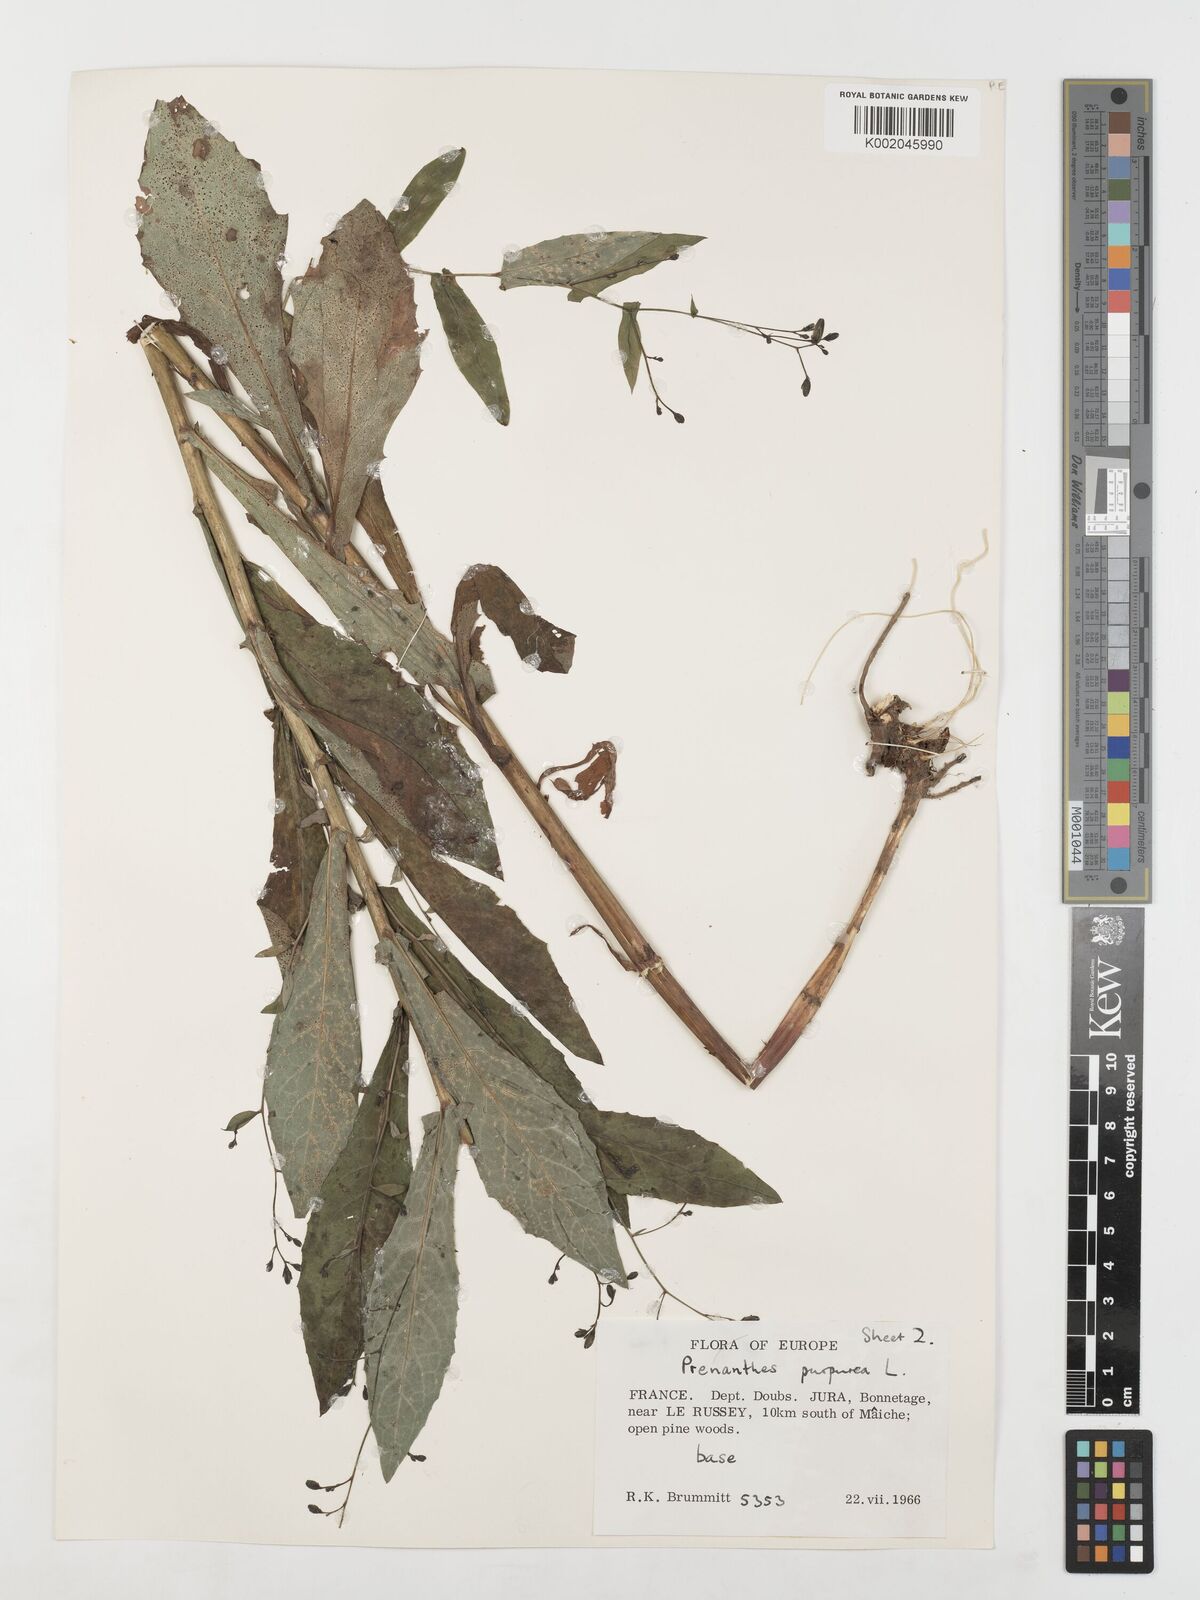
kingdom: Plantae
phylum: Tracheophyta
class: Magnoliopsida
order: Asterales
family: Asteraceae
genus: Prenanthes
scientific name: Prenanthes purpurea
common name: Purple lettuce
